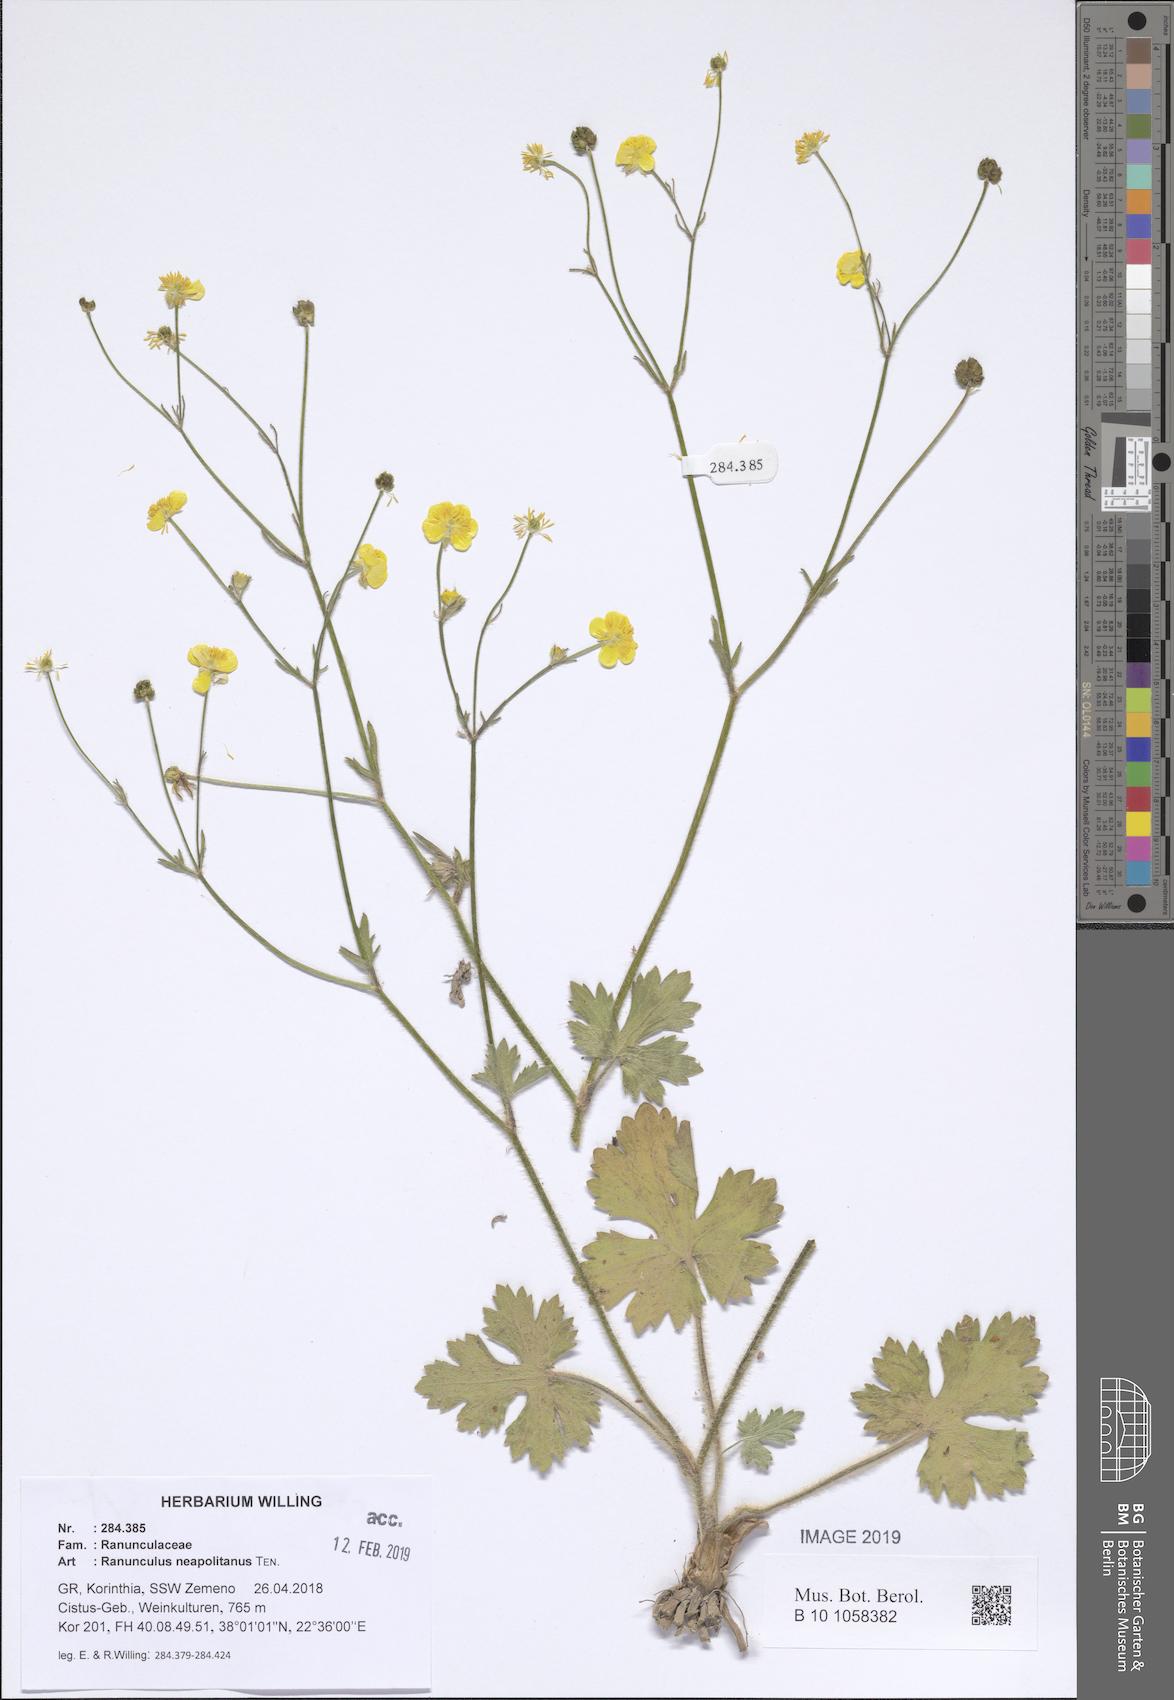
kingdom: Plantae
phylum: Tracheophyta
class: Magnoliopsida
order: Ranunculales
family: Ranunculaceae
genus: Ranunculus
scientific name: Ranunculus neapolitanus
